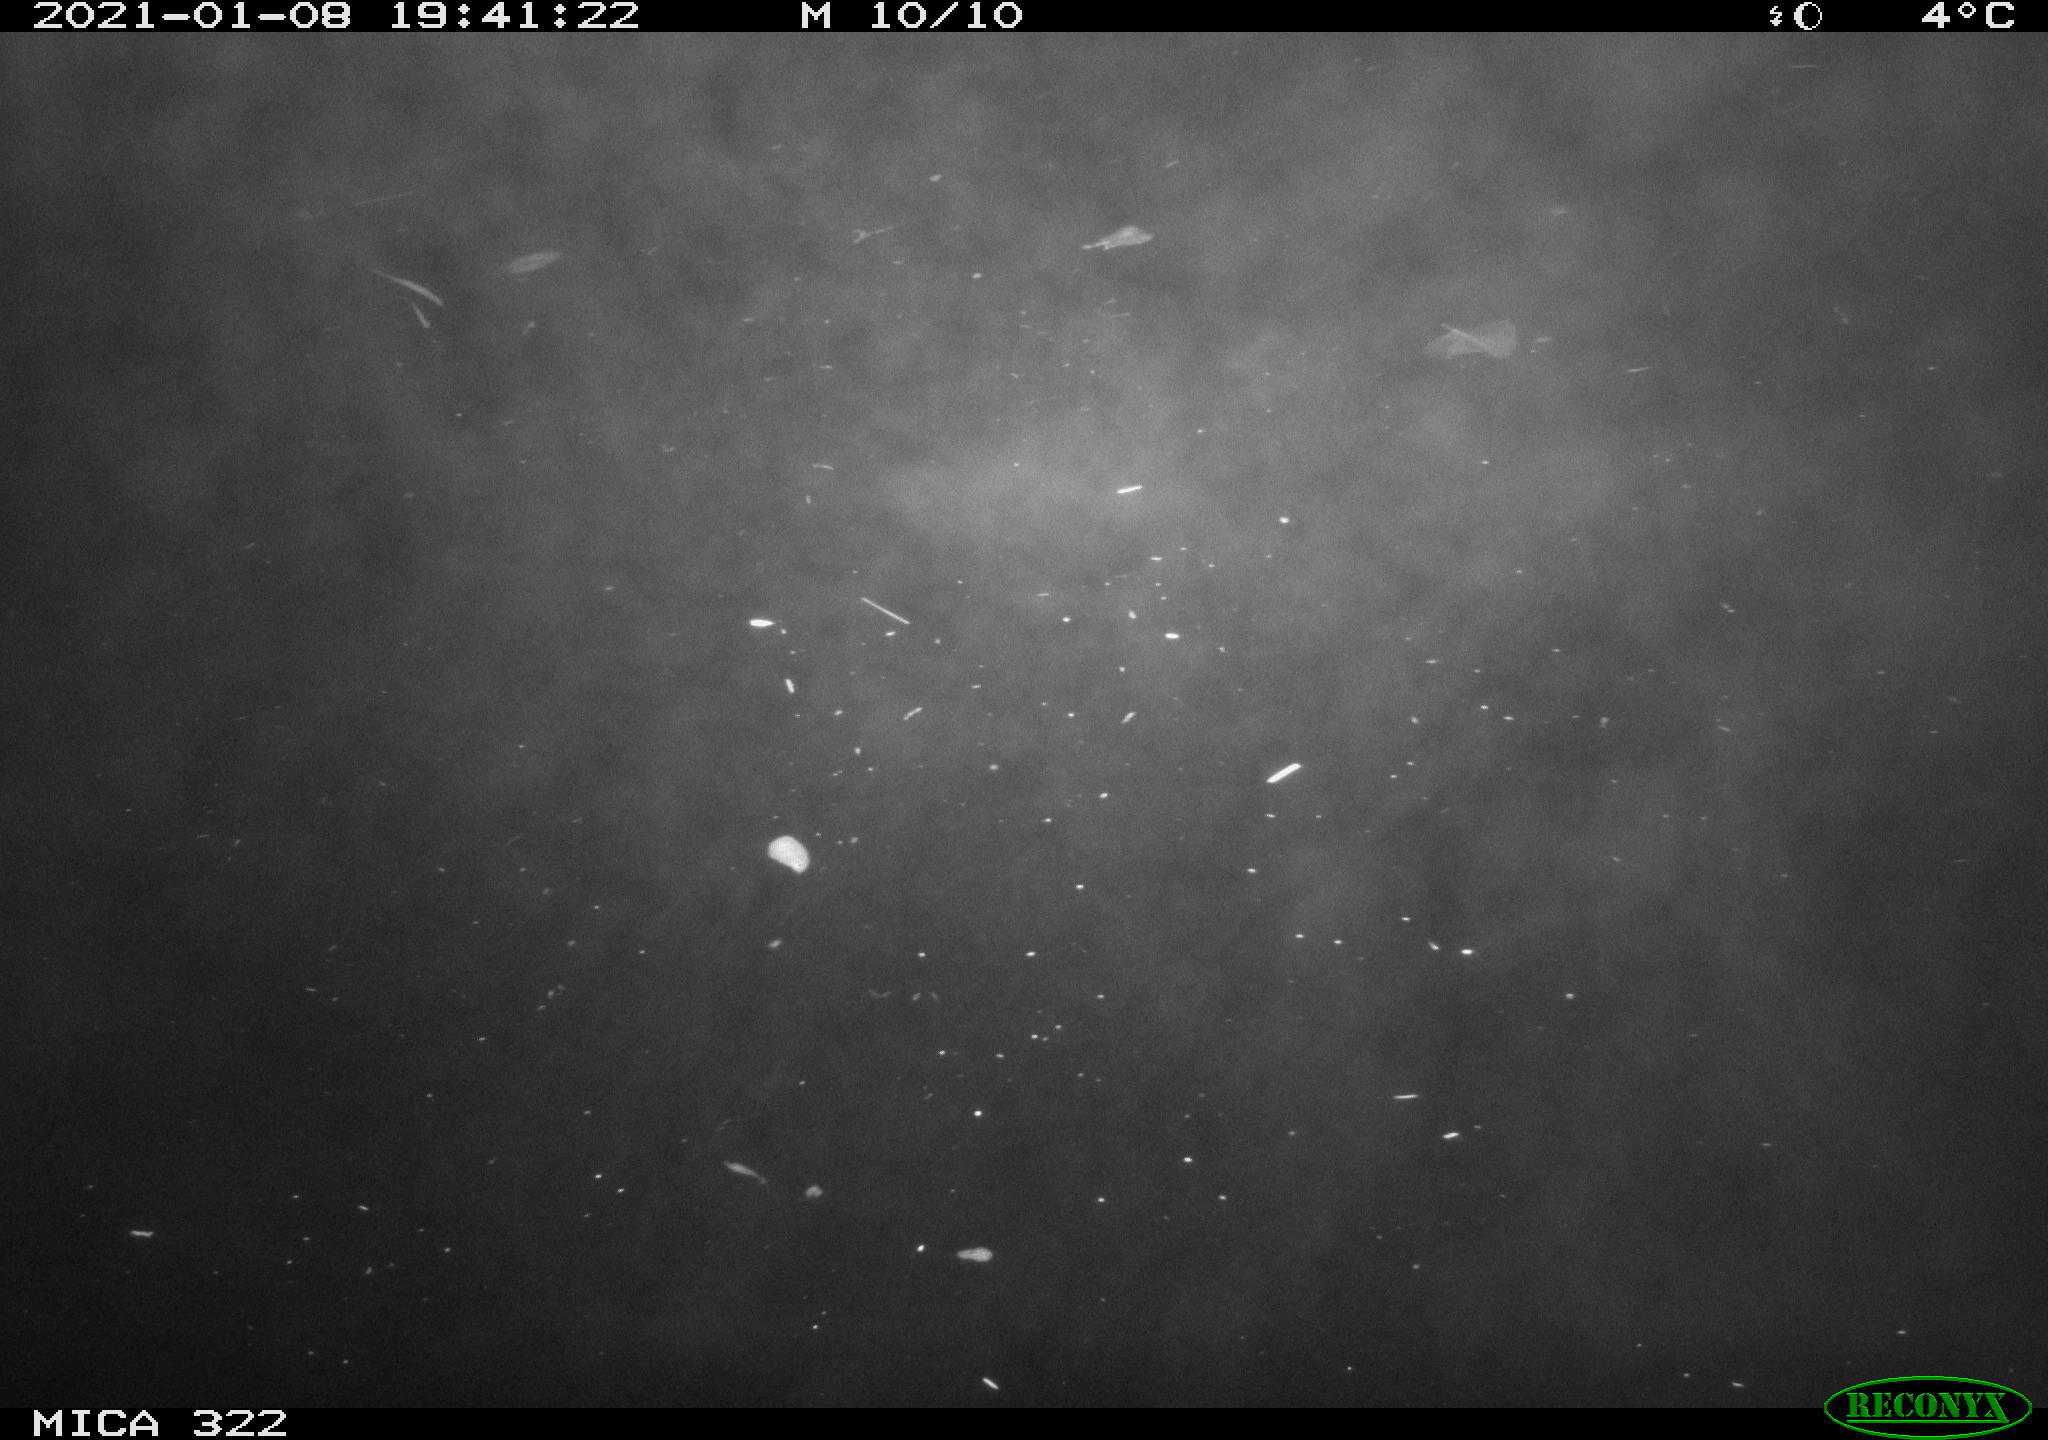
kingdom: Animalia
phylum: Chordata
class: Mammalia
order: Rodentia
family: Muridae
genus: Rattus
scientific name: Rattus norvegicus
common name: Brown rat
